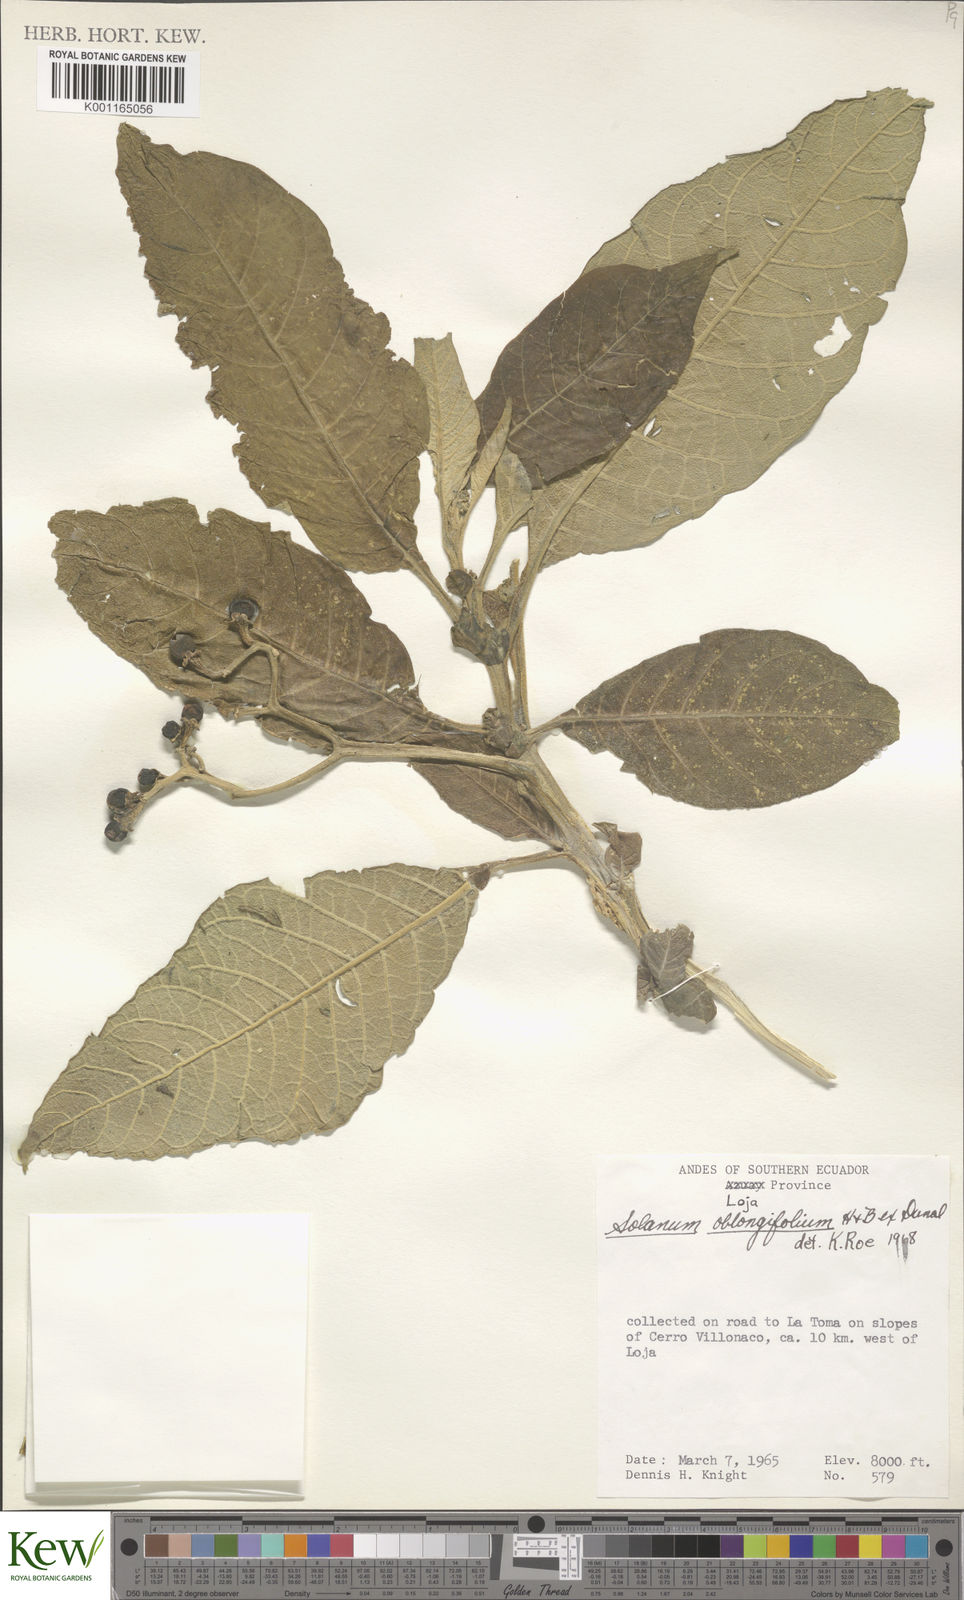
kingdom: Plantae
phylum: Tracheophyta
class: Magnoliopsida
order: Solanales
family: Solanaceae
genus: Solanum
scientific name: Solanum oblongifolium
